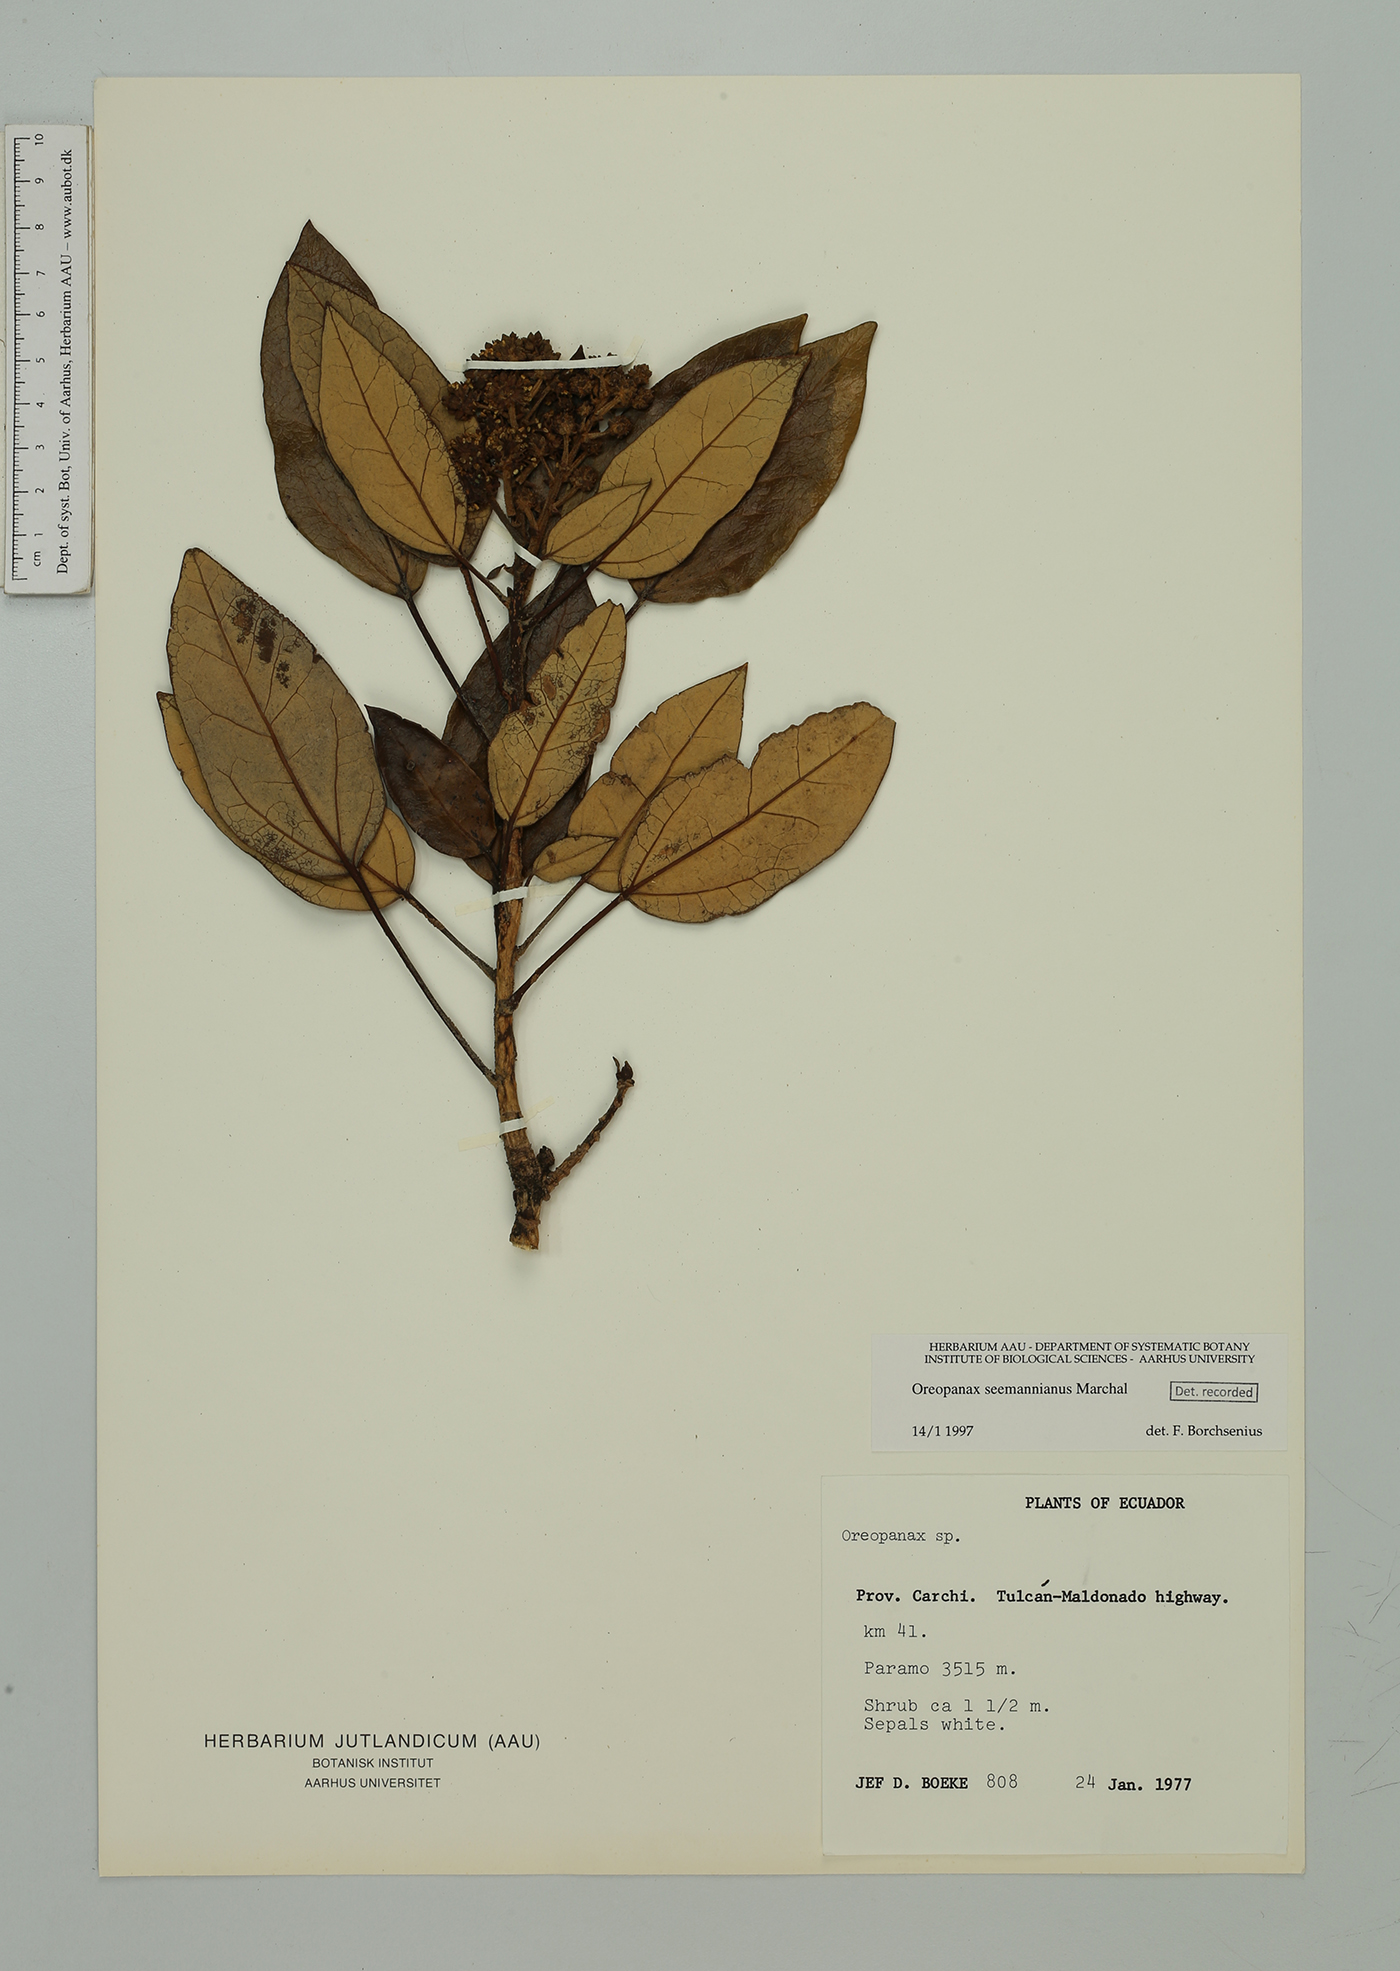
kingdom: Plantae
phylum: Tracheophyta
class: Magnoliopsida
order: Apiales
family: Araliaceae
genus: Oreopanax
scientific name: Oreopanax seemannianus
